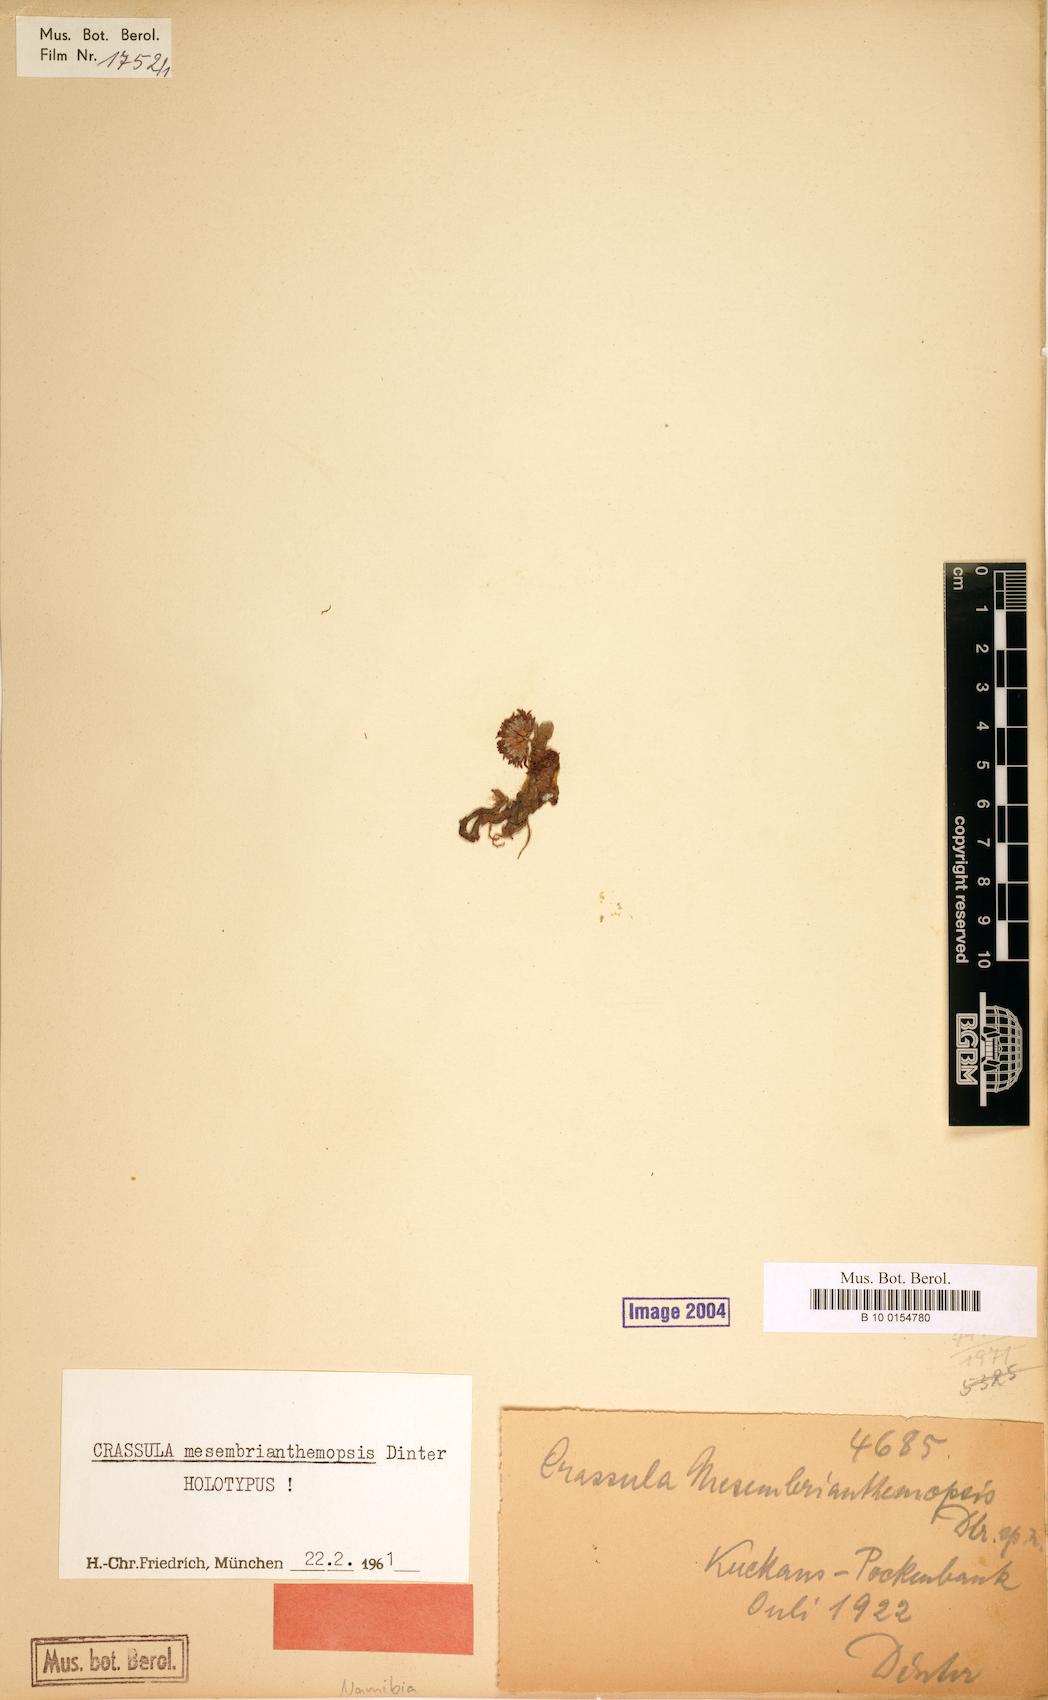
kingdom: Plantae
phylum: Tracheophyta
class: Magnoliopsida
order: Saxifragales
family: Crassulaceae
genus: Crassula
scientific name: Crassula mesembrianthemopsis
